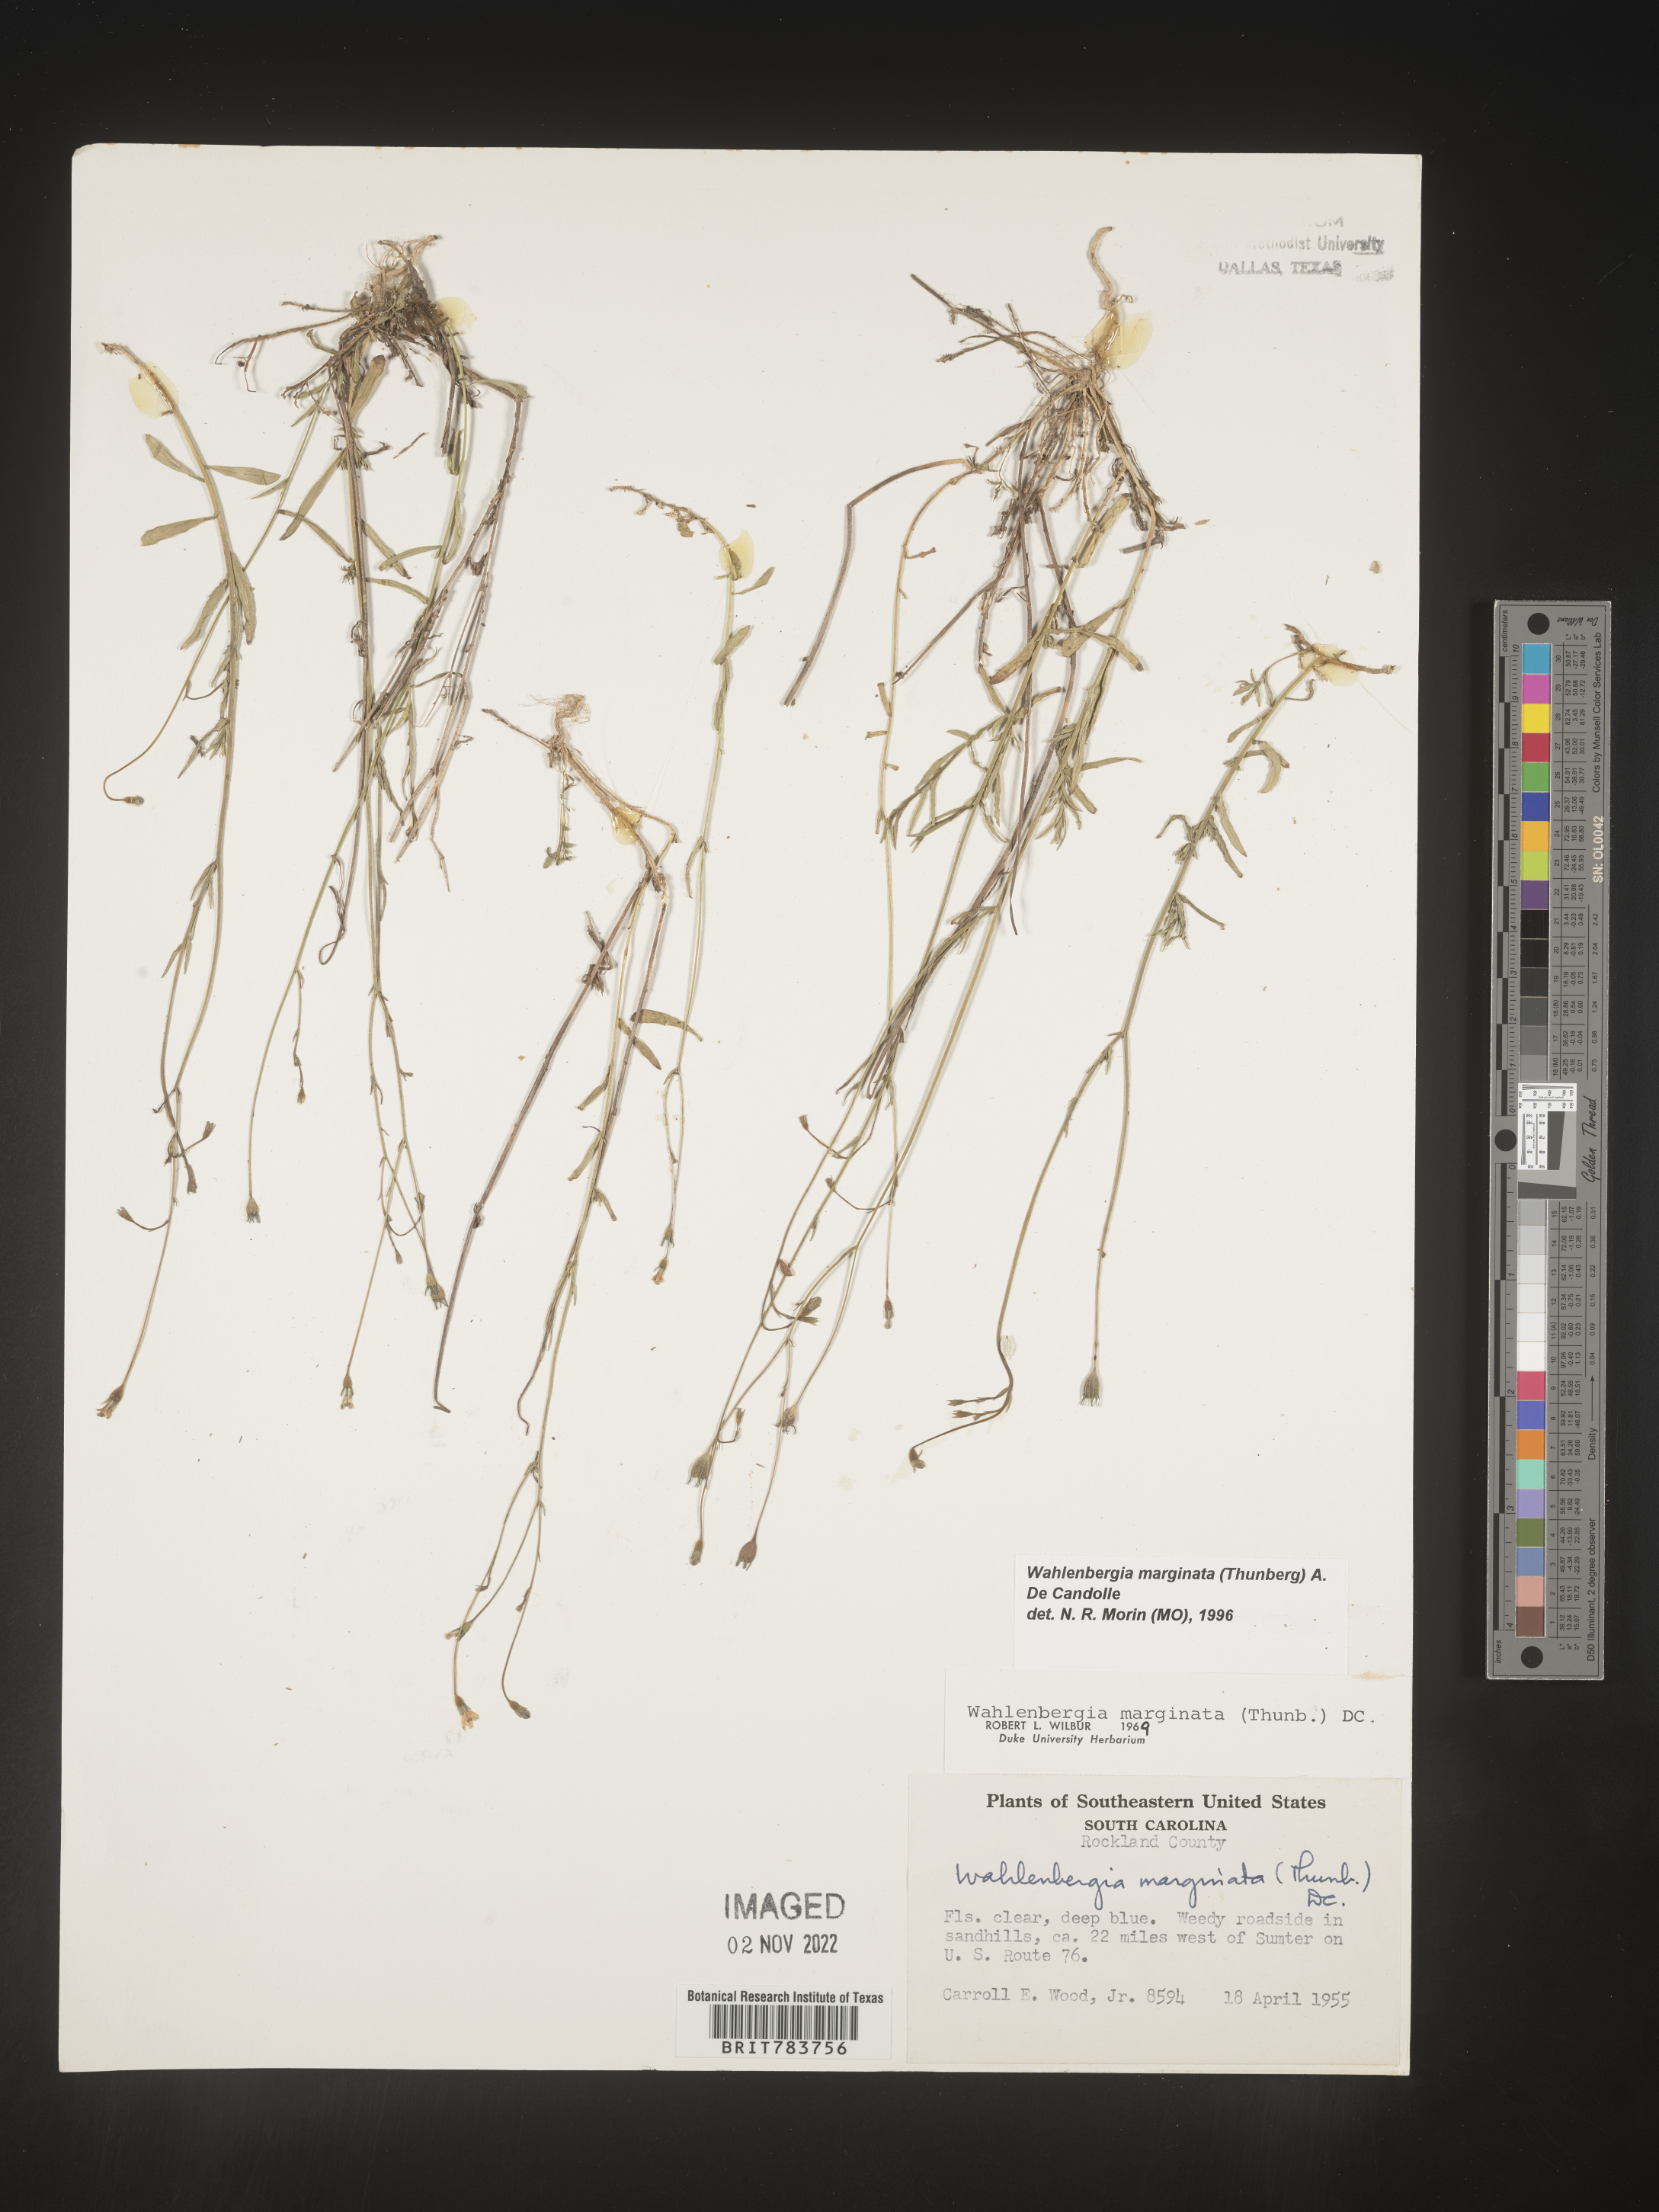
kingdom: Plantae
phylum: Tracheophyta
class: Magnoliopsida
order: Asterales
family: Campanulaceae
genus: Wahlenbergia
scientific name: Wahlenbergia marginata
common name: Southern rockbell
